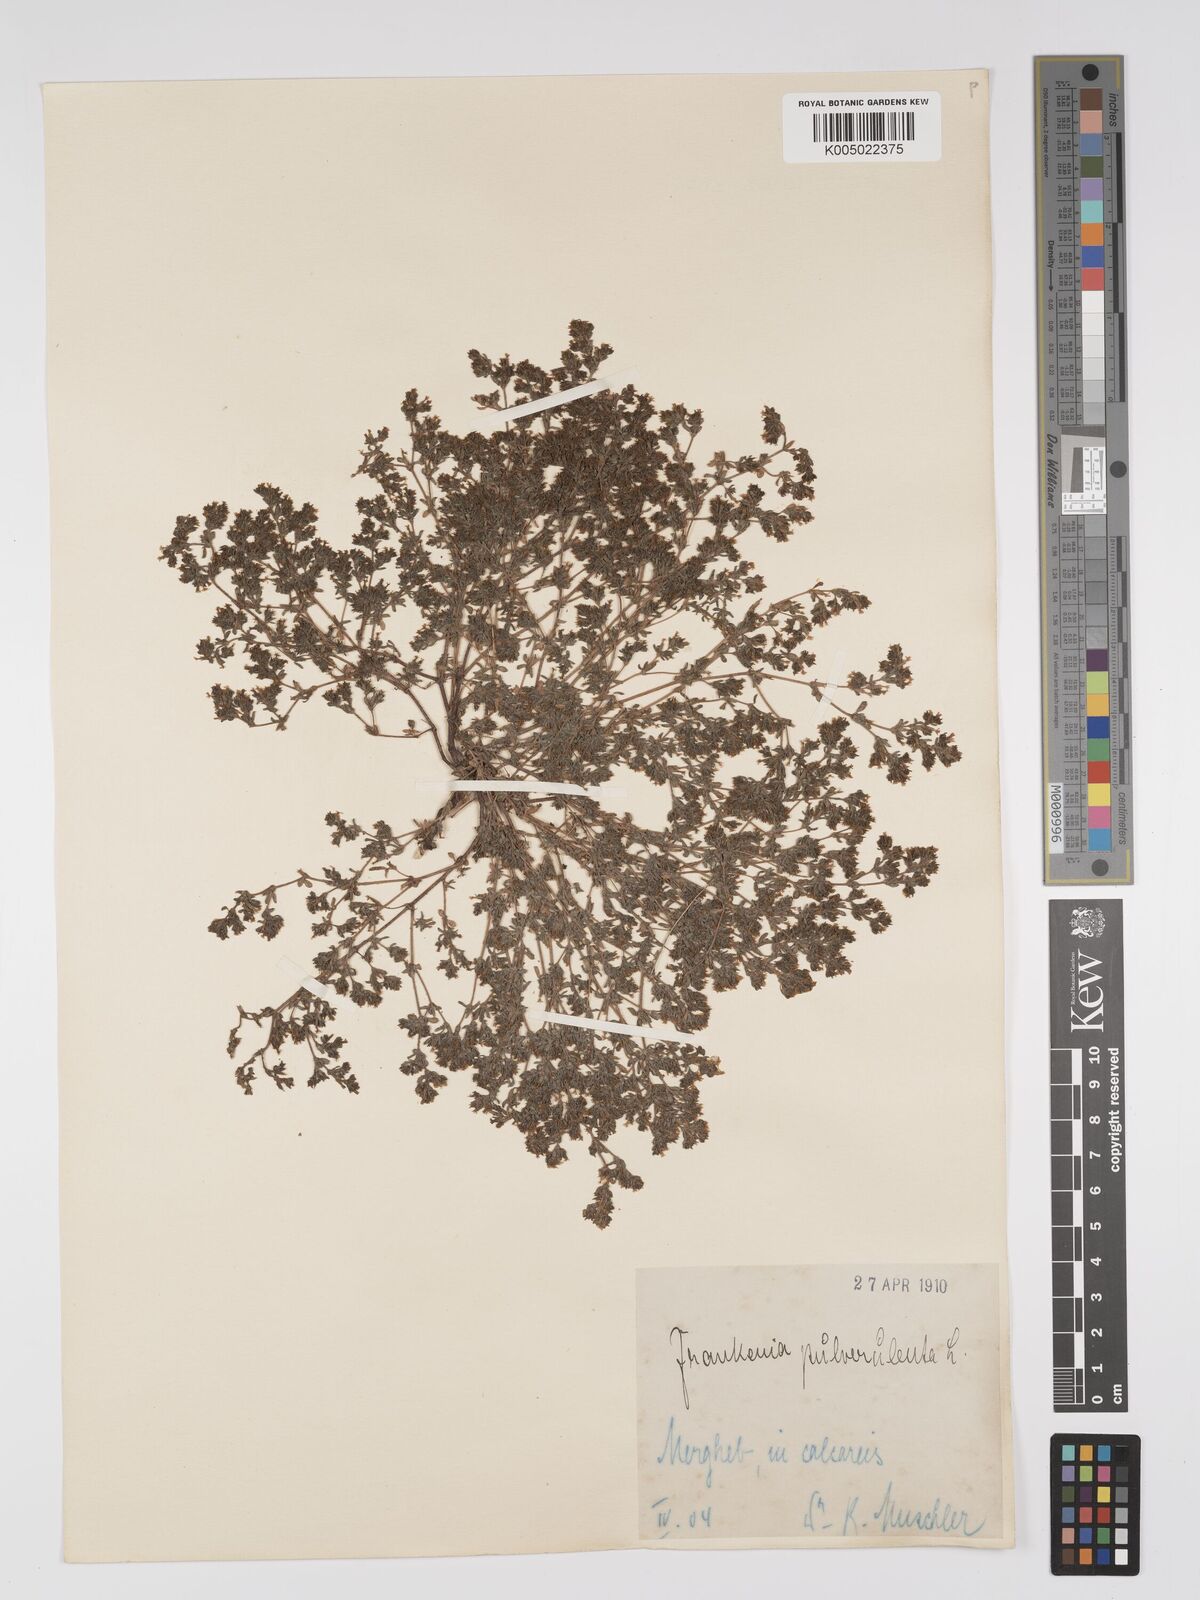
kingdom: Plantae
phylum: Tracheophyta
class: Magnoliopsida
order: Caryophyllales
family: Frankeniaceae
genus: Frankenia
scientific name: Frankenia pulverulenta
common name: European seaheath
